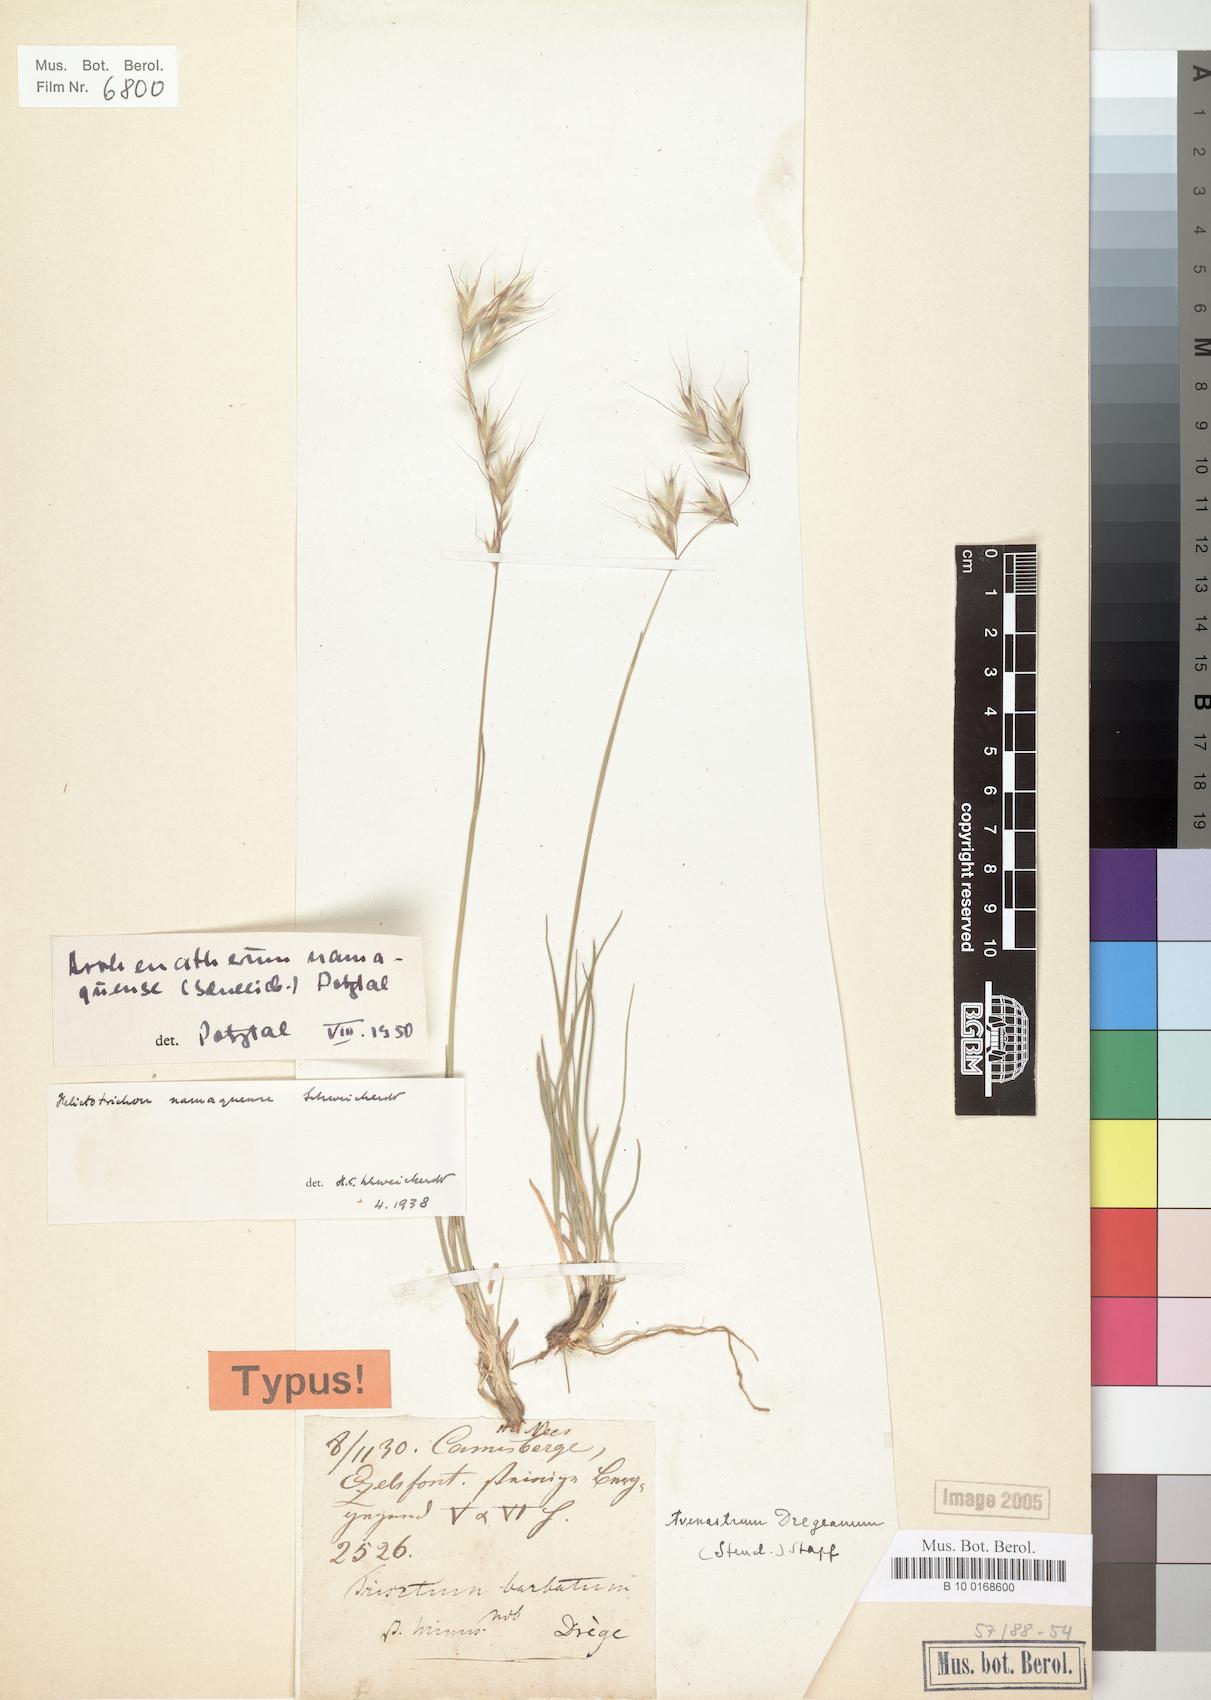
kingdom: Plantae
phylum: Tracheophyta
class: Liliopsida
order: Poales
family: Poaceae
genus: Trisetopsis
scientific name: Trisetopsis namaquensis
